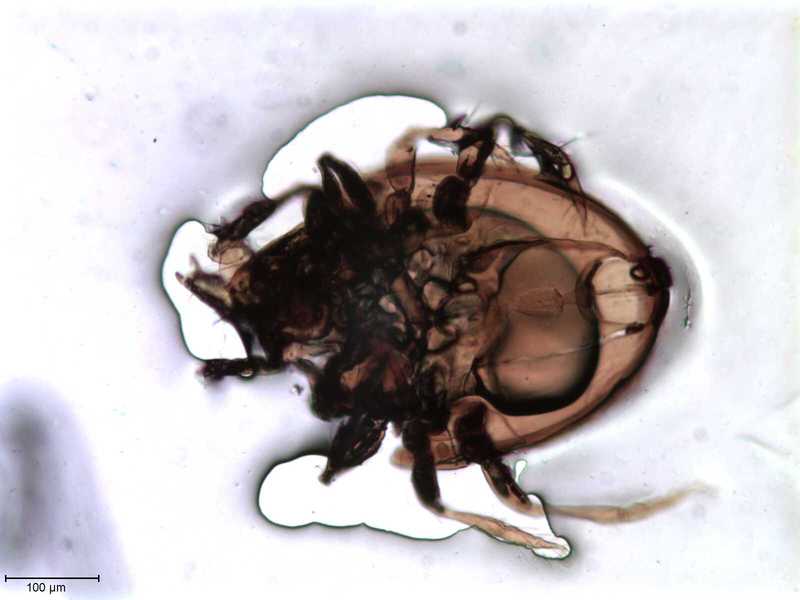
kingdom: Animalia
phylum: Arthropoda
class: Arachnida
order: Sarcoptiformes
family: Oribatulidae
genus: Oribatula
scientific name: Oribatula
